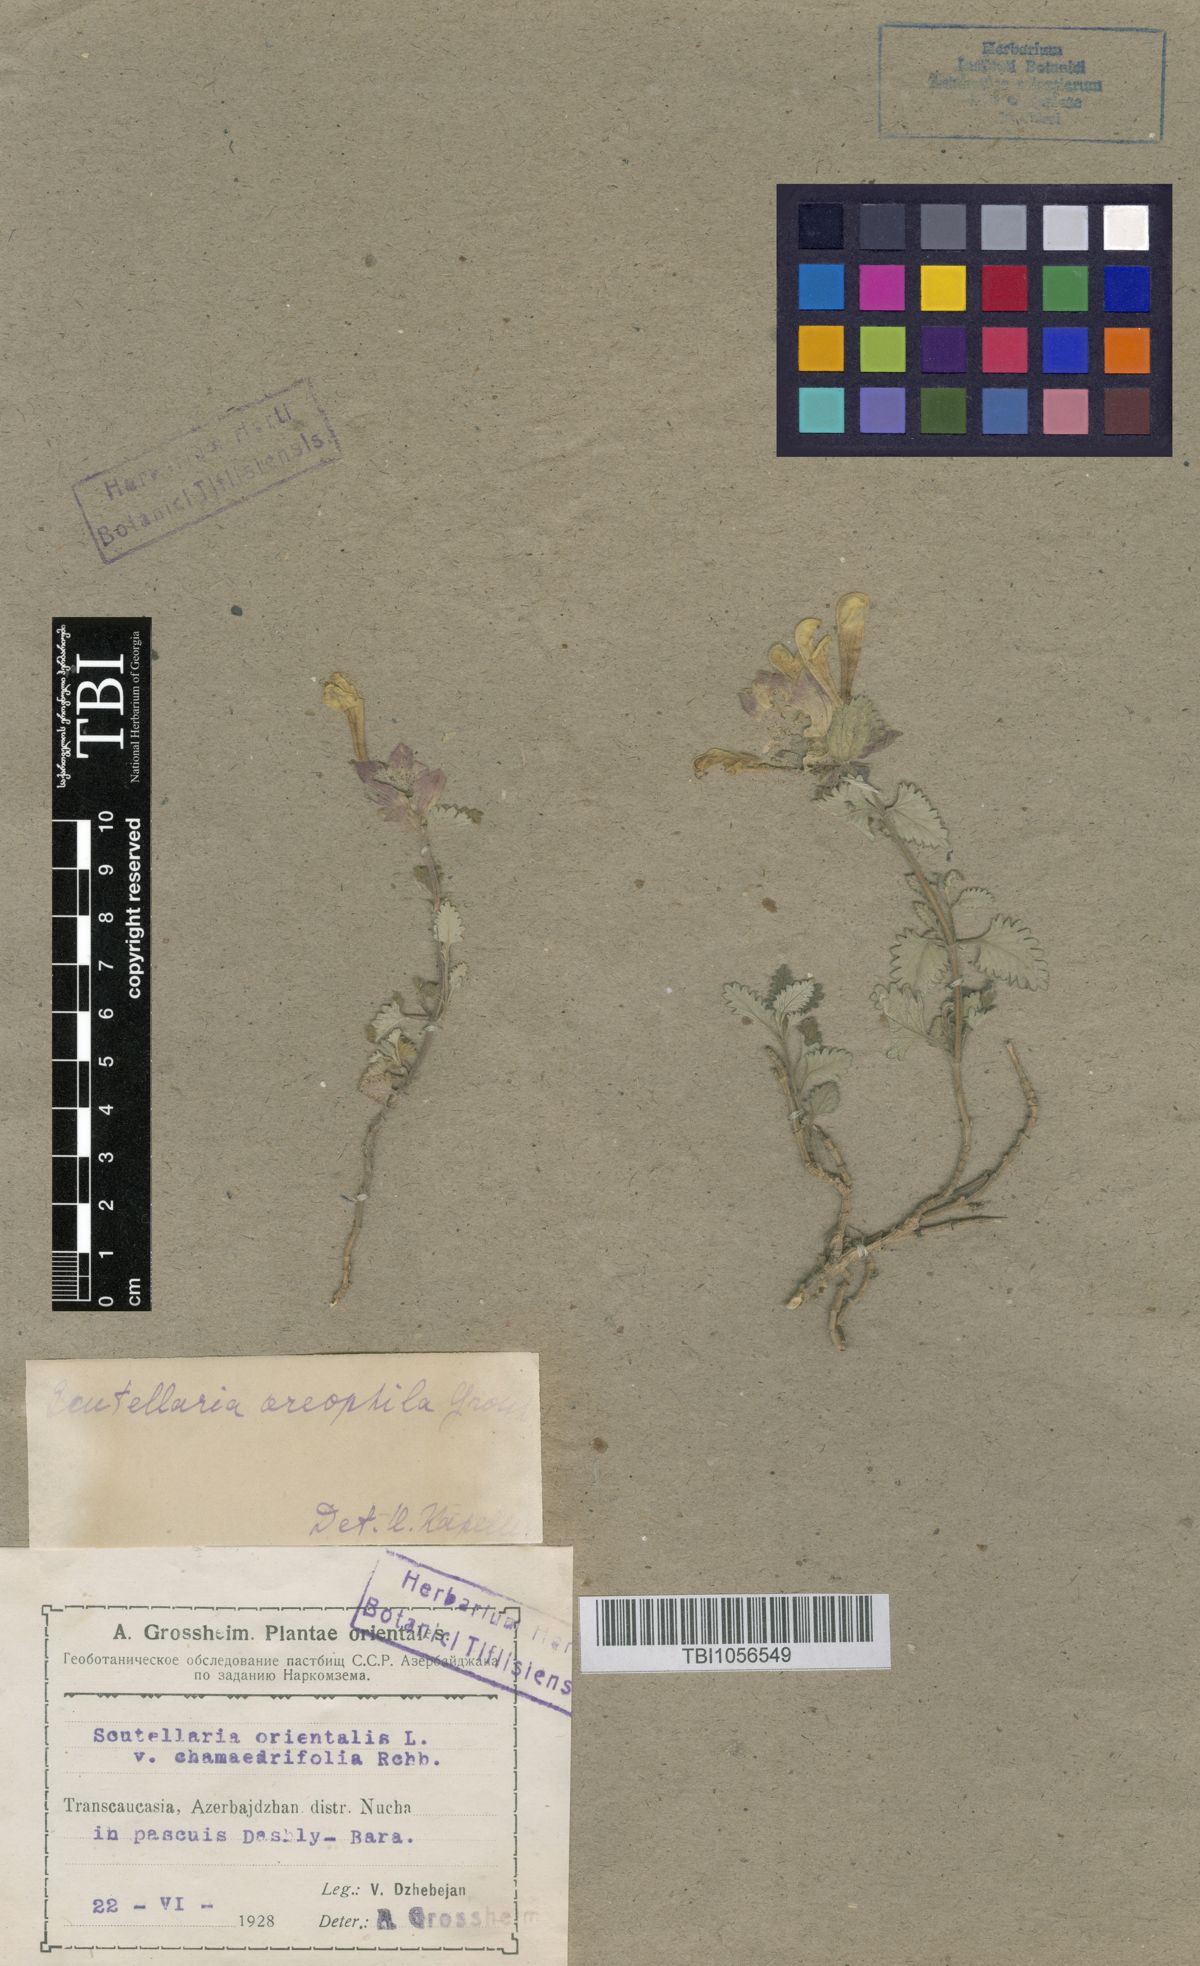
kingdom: Plantae
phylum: Tracheophyta
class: Magnoliopsida
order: Lamiales
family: Lamiaceae
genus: Scutellaria
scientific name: Scutellaria oreophila
